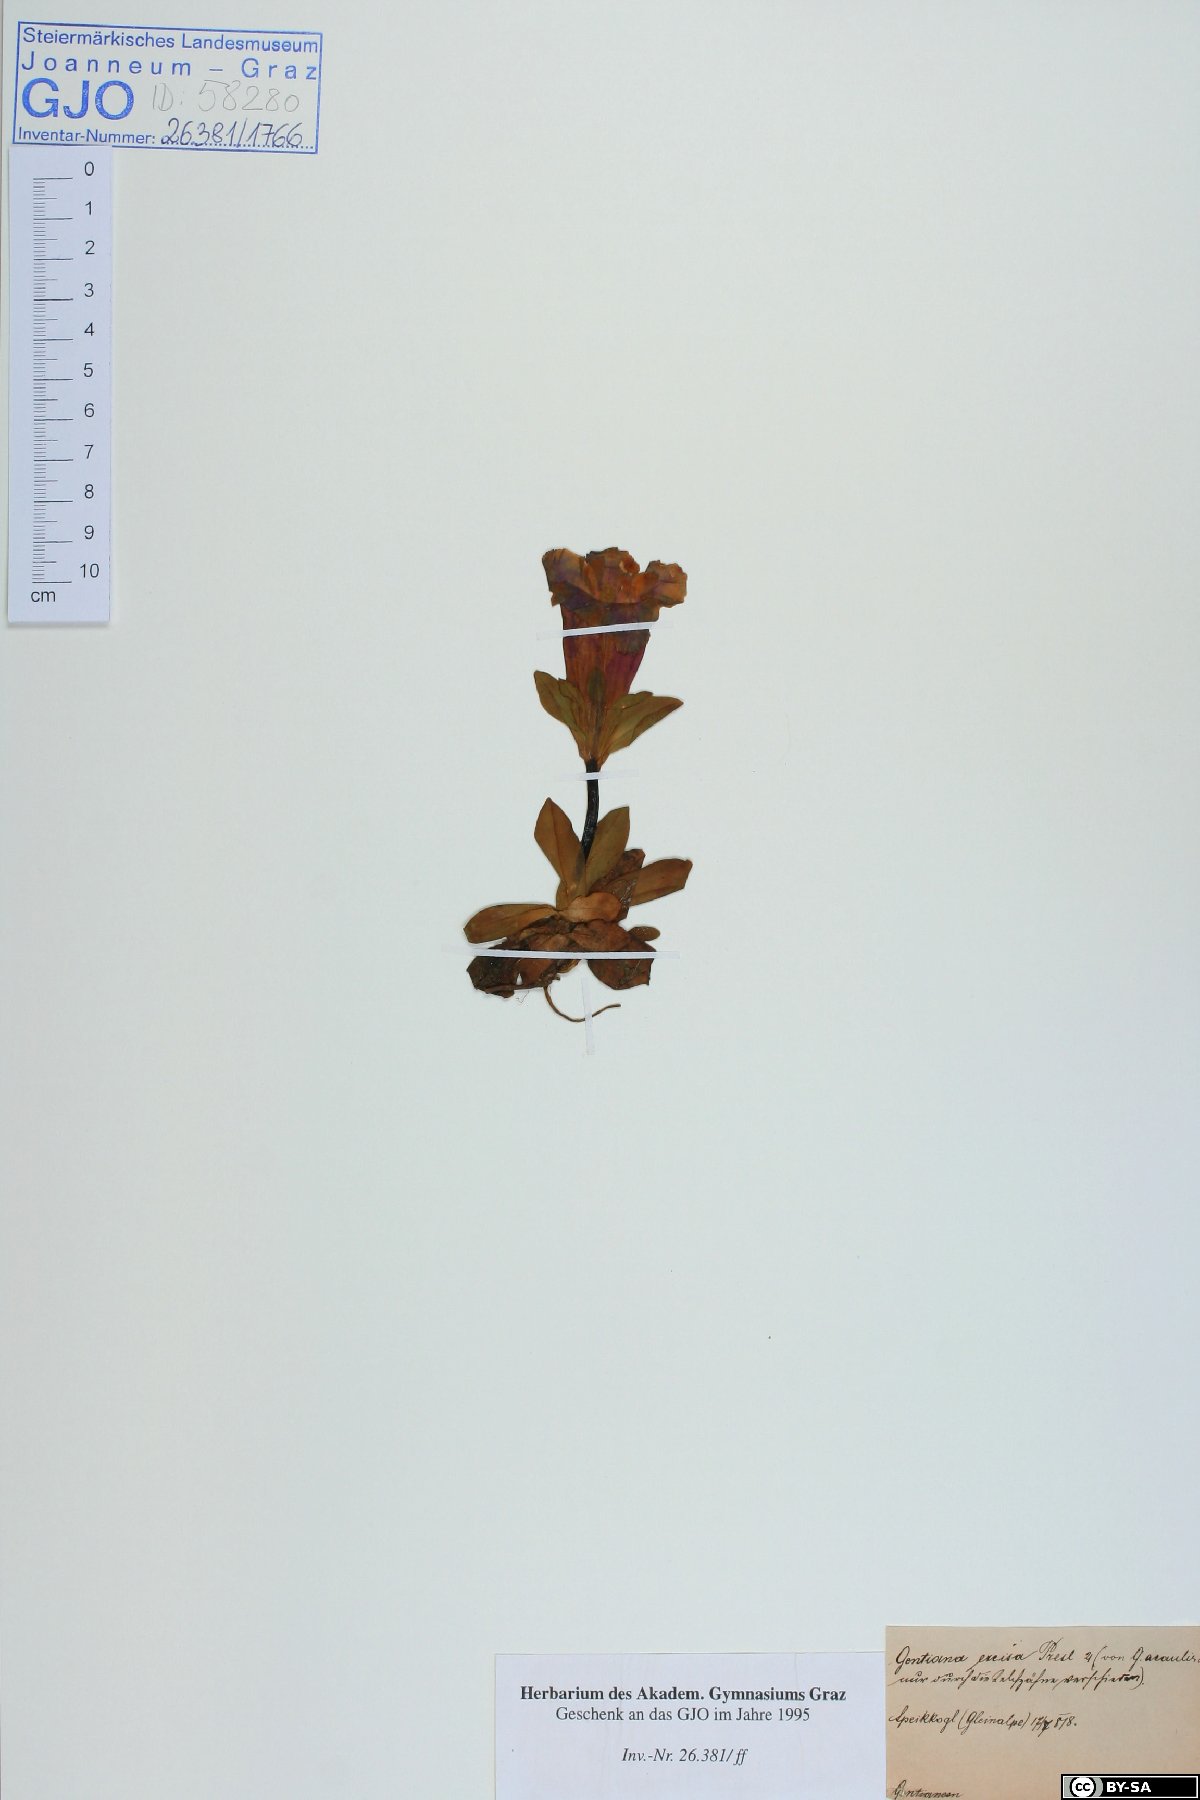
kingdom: Plantae
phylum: Tracheophyta
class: Magnoliopsida
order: Gentianales
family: Gentianaceae
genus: Gentiana
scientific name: Gentiana acaulis
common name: Trumpet gentian
